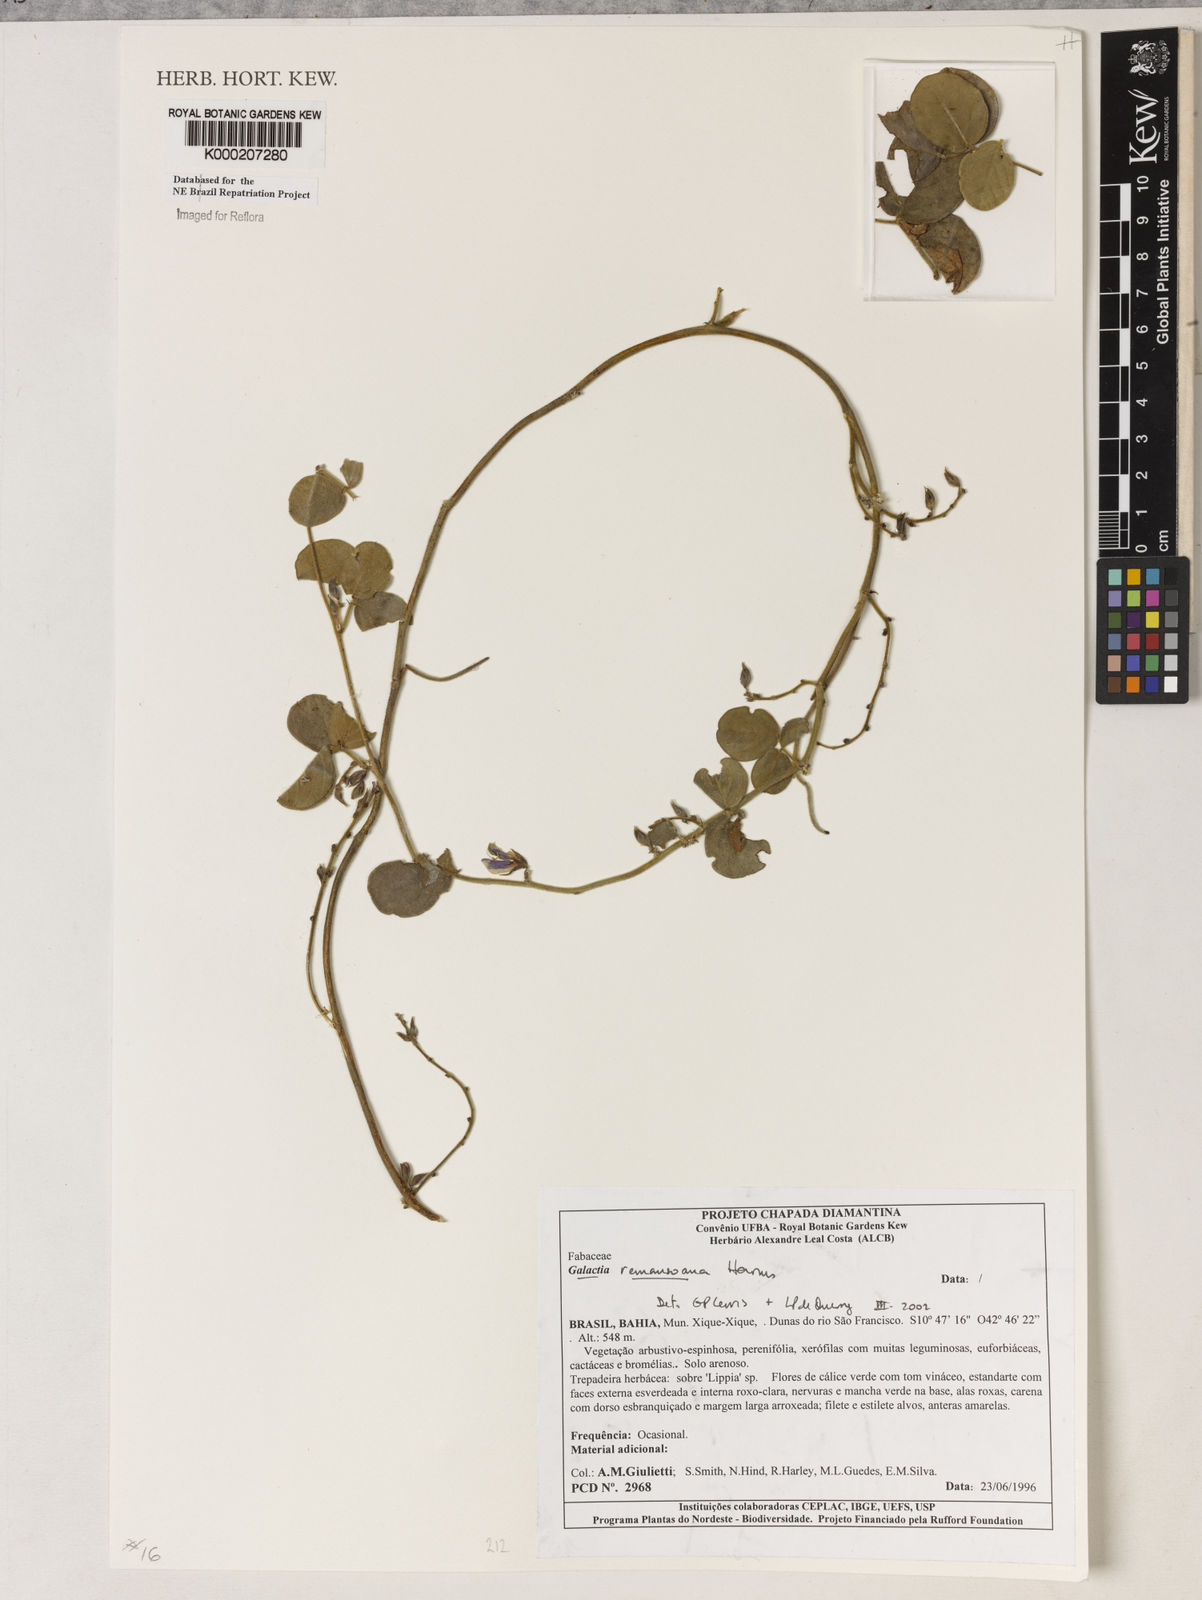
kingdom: Plantae
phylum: Tracheophyta
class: Magnoliopsida
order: Fabales
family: Fabaceae
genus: Galactia
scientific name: Galactia remansoana
